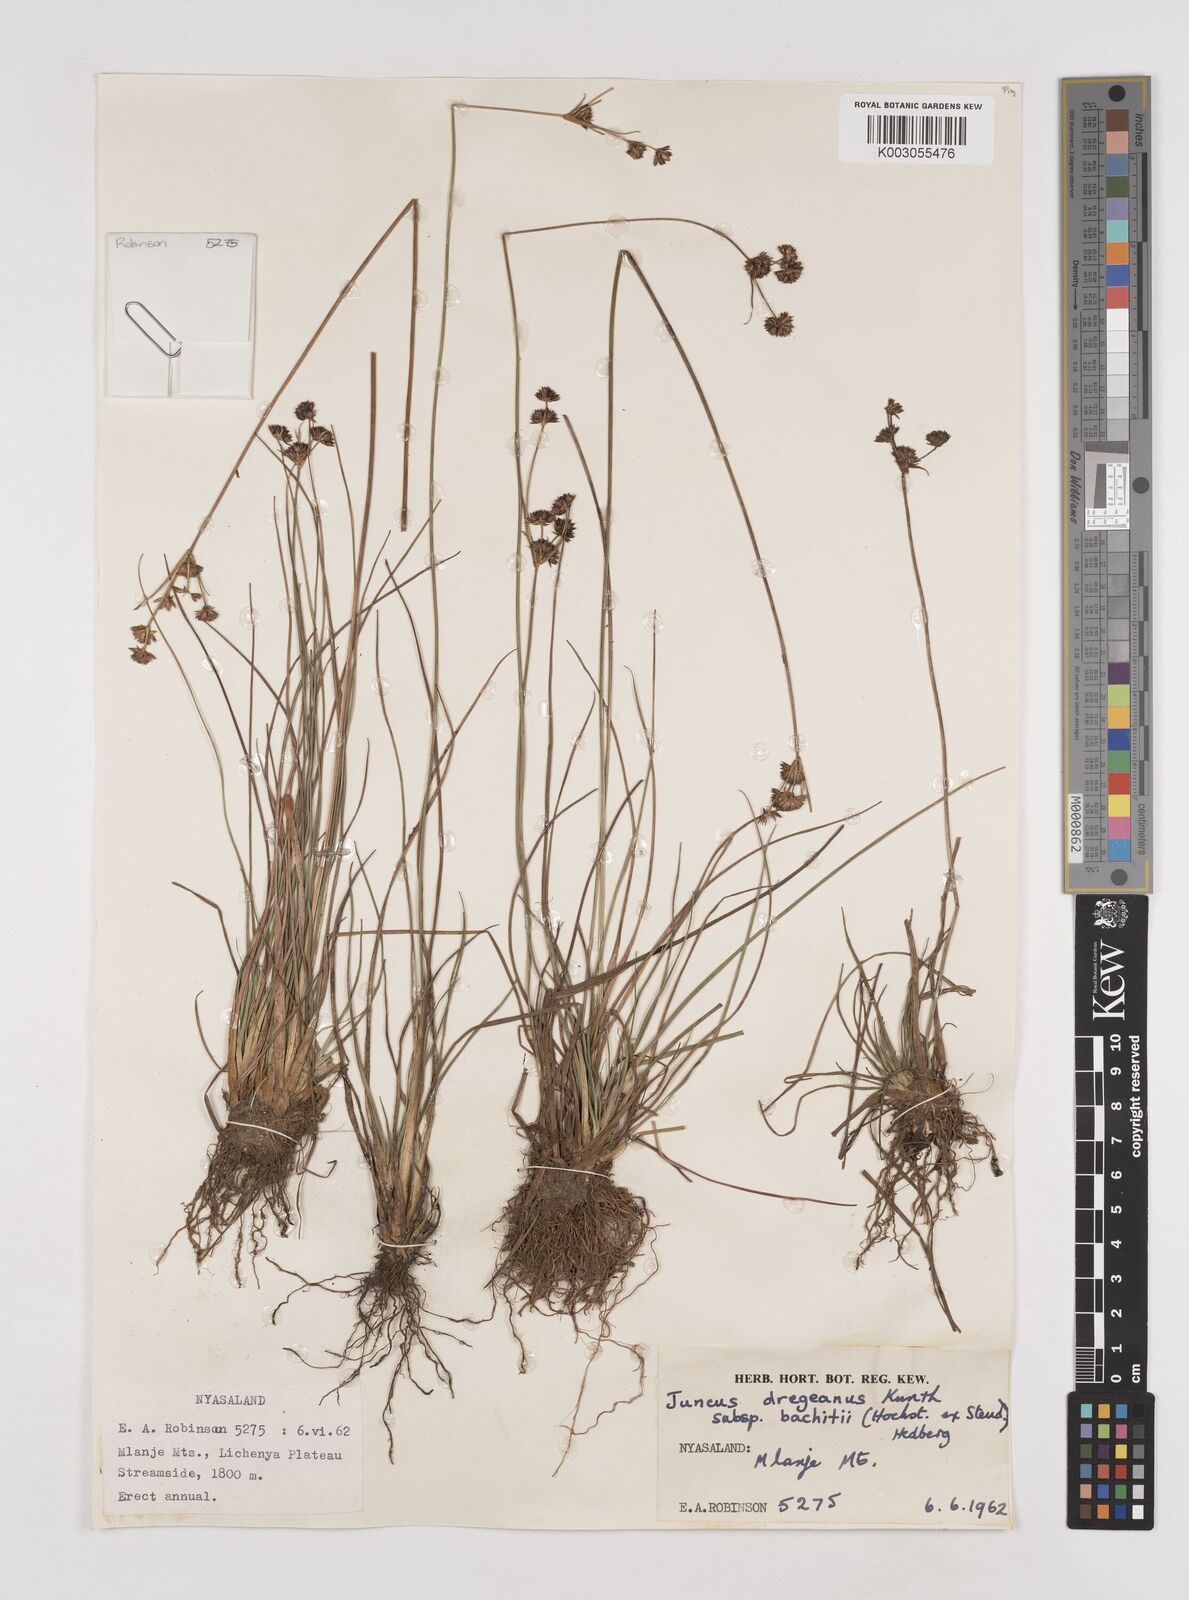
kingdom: Plantae
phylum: Tracheophyta
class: Liliopsida
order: Poales
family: Juncaceae
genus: Juncus
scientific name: Juncus dregeanus
